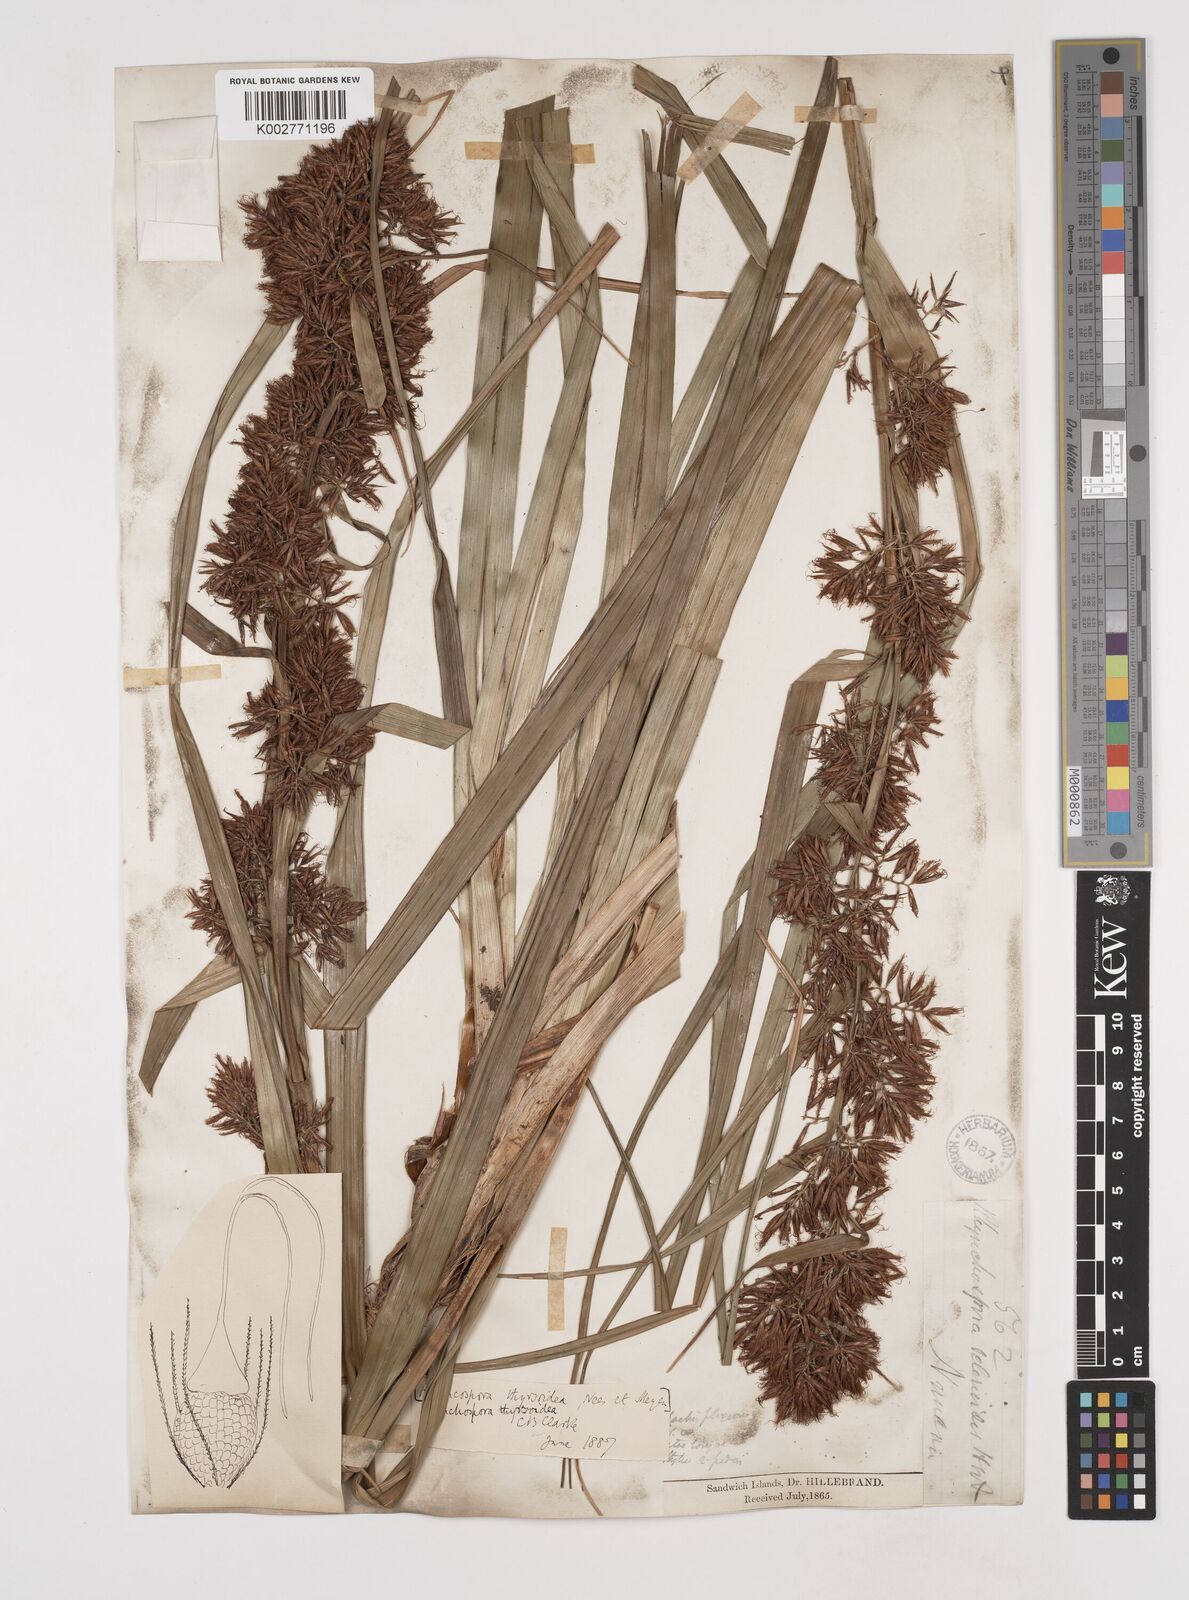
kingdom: Plantae
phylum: Tracheophyta
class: Liliopsida
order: Poales
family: Cyperaceae
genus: Rhynchospora
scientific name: Rhynchospora sclerioides
